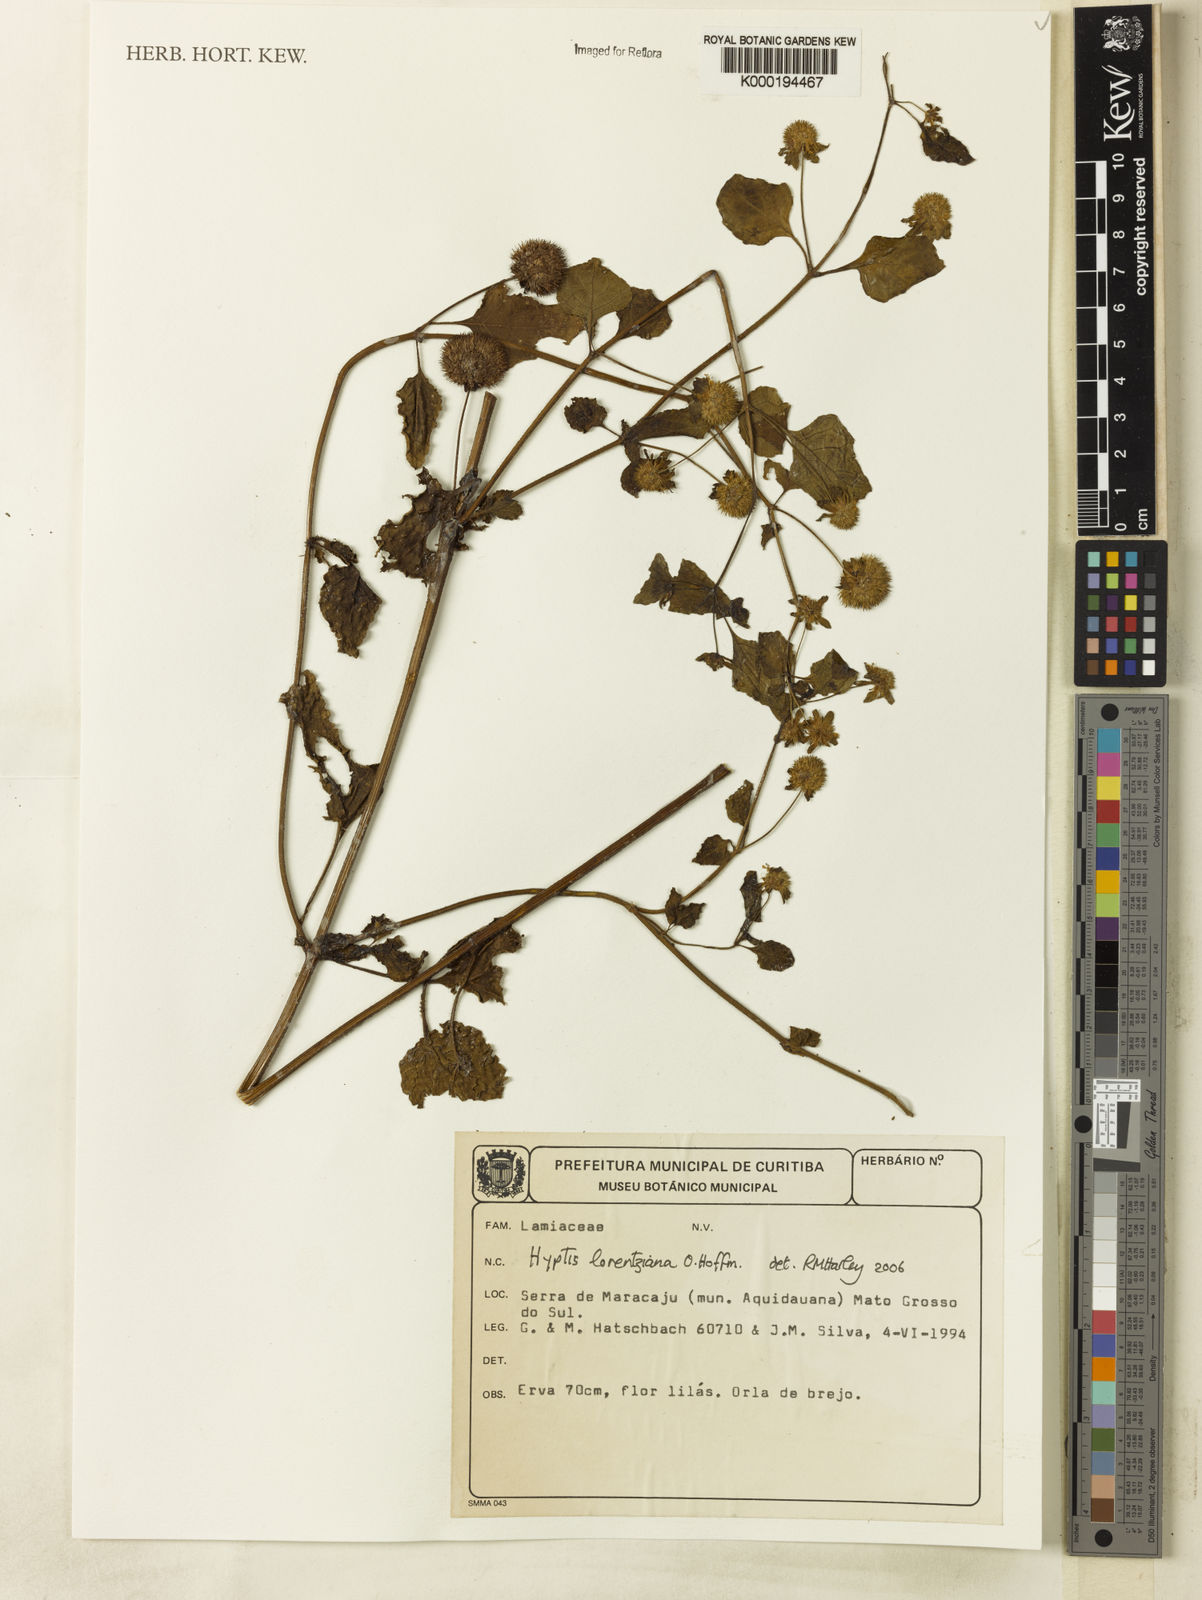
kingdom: Plantae
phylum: Tracheophyta
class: Magnoliopsida
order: Lamiales
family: Lamiaceae
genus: Hyptis
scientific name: Hyptis lorentziana
